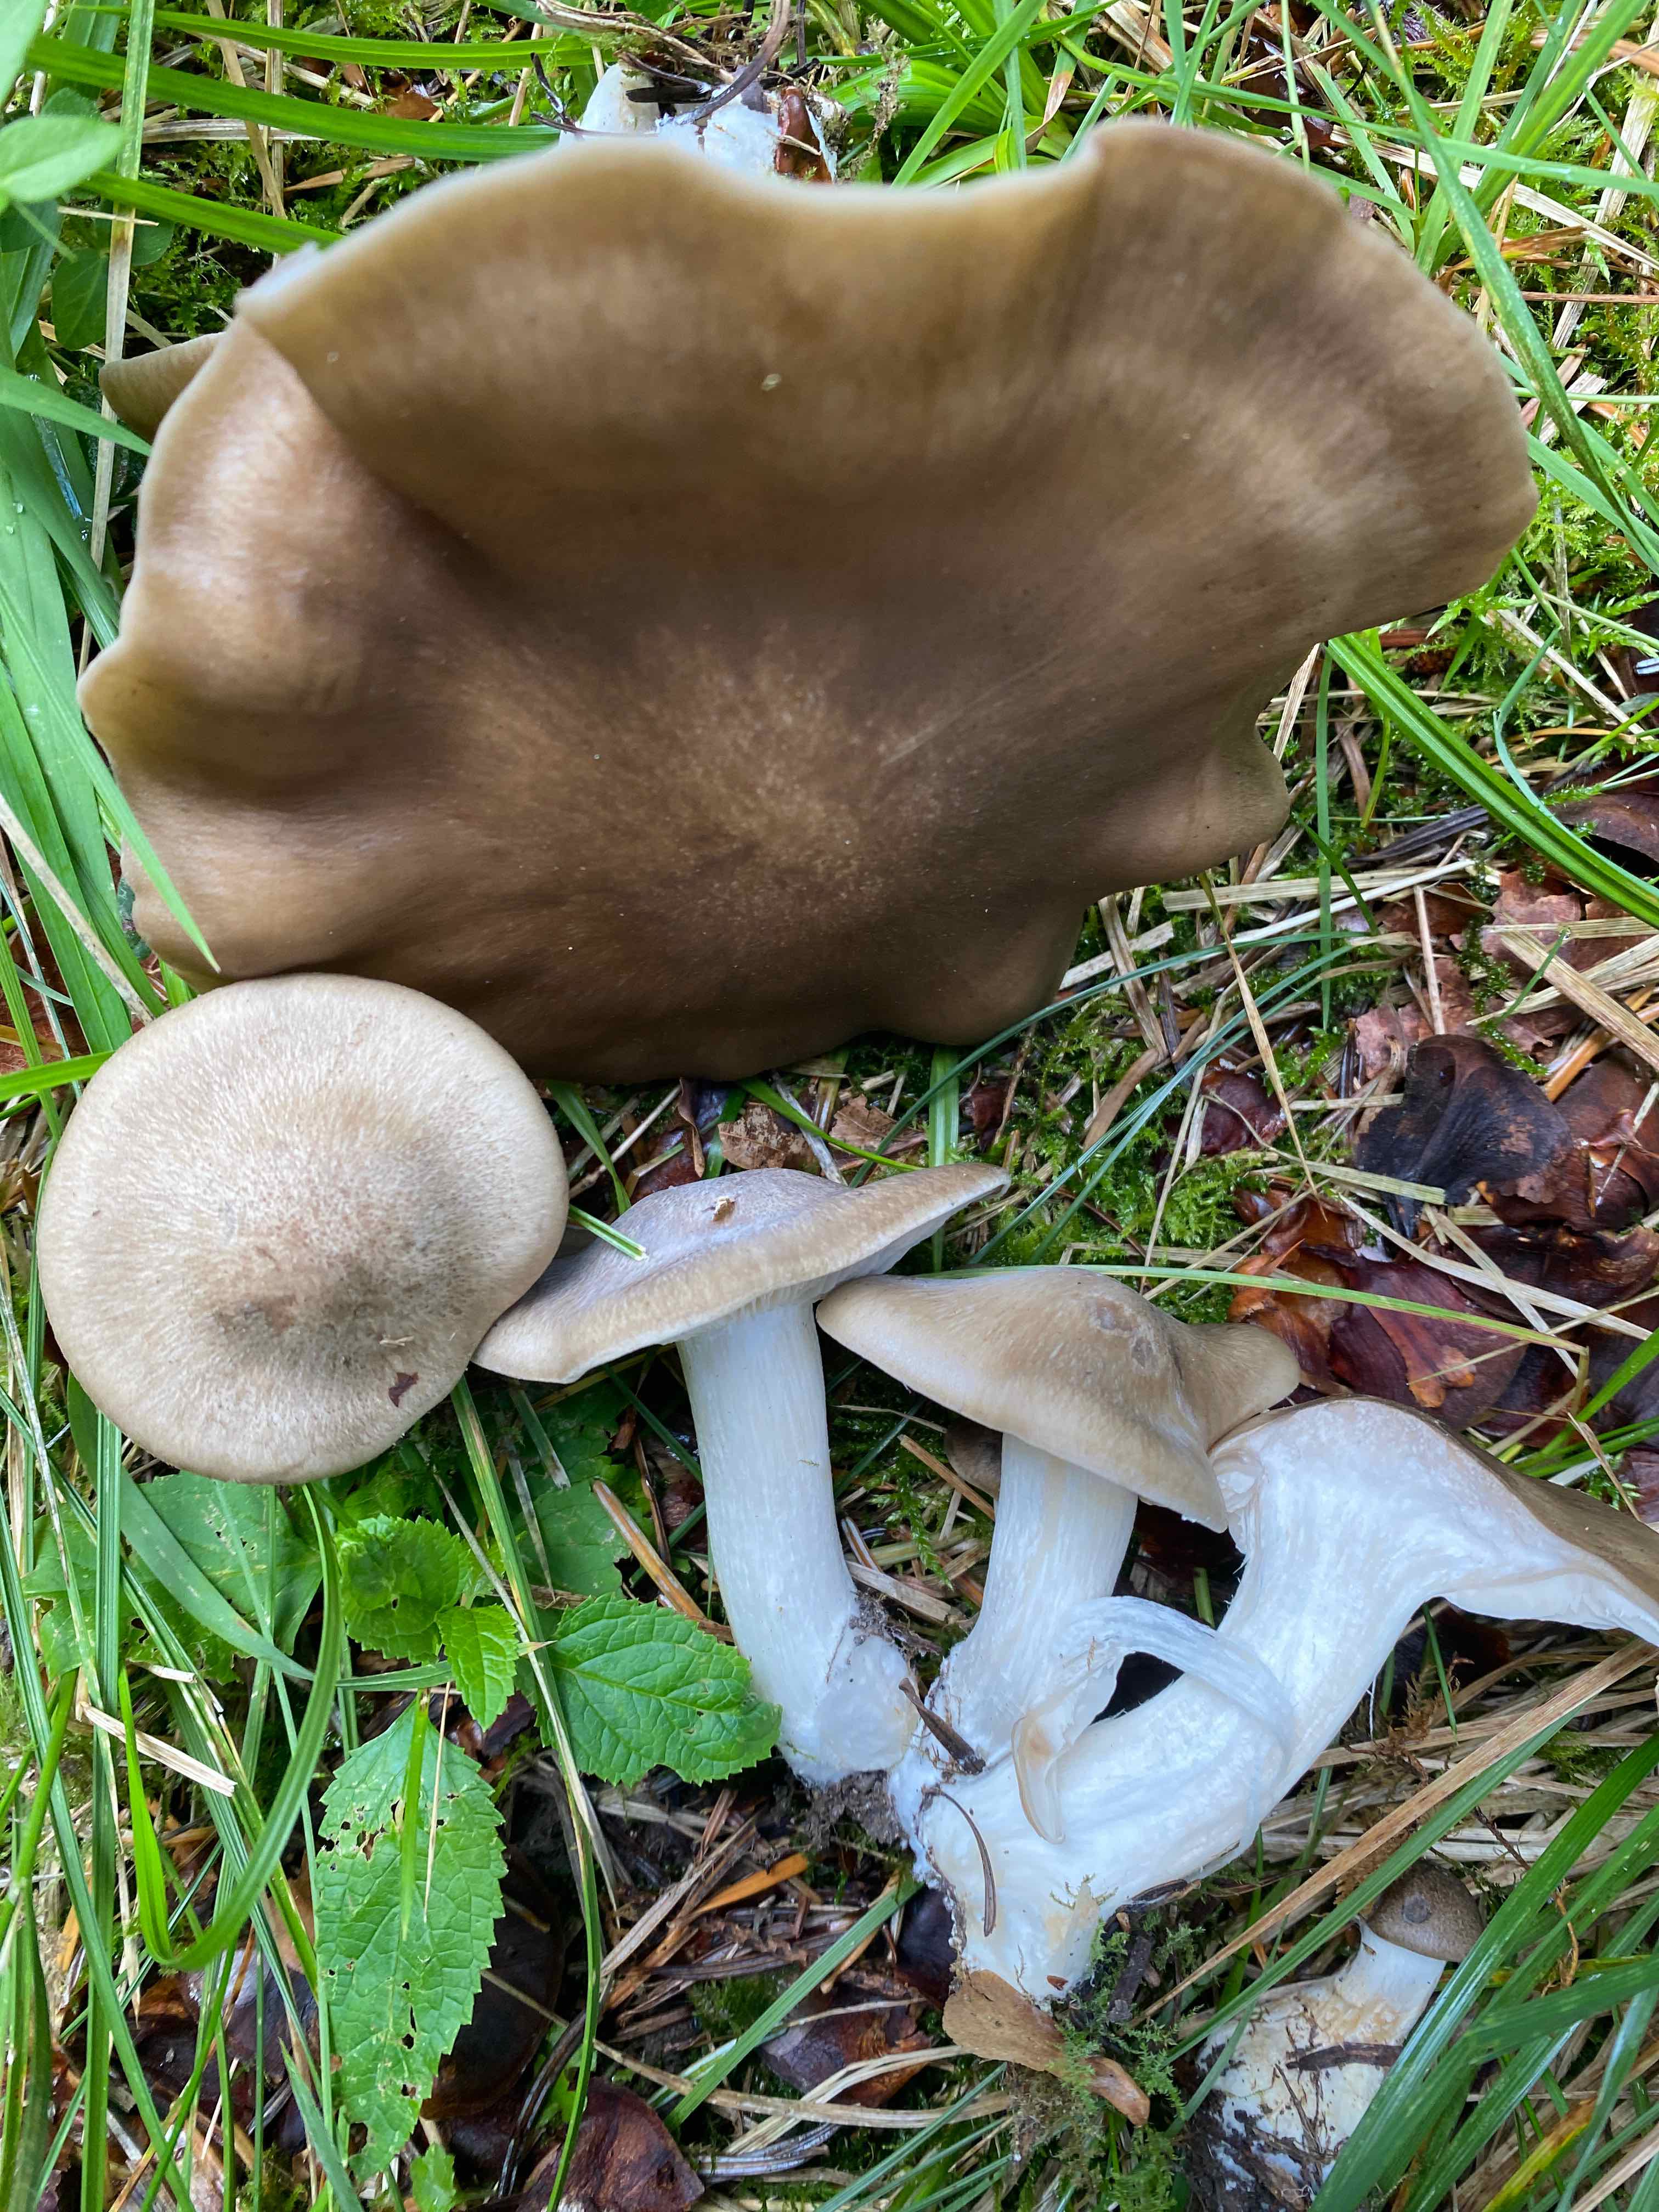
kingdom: Fungi
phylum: Basidiomycota
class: Agaricomycetes
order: Agaricales
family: Lyophyllaceae
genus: Lyophyllum
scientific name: Lyophyllum decastes
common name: røggrå gråblad
